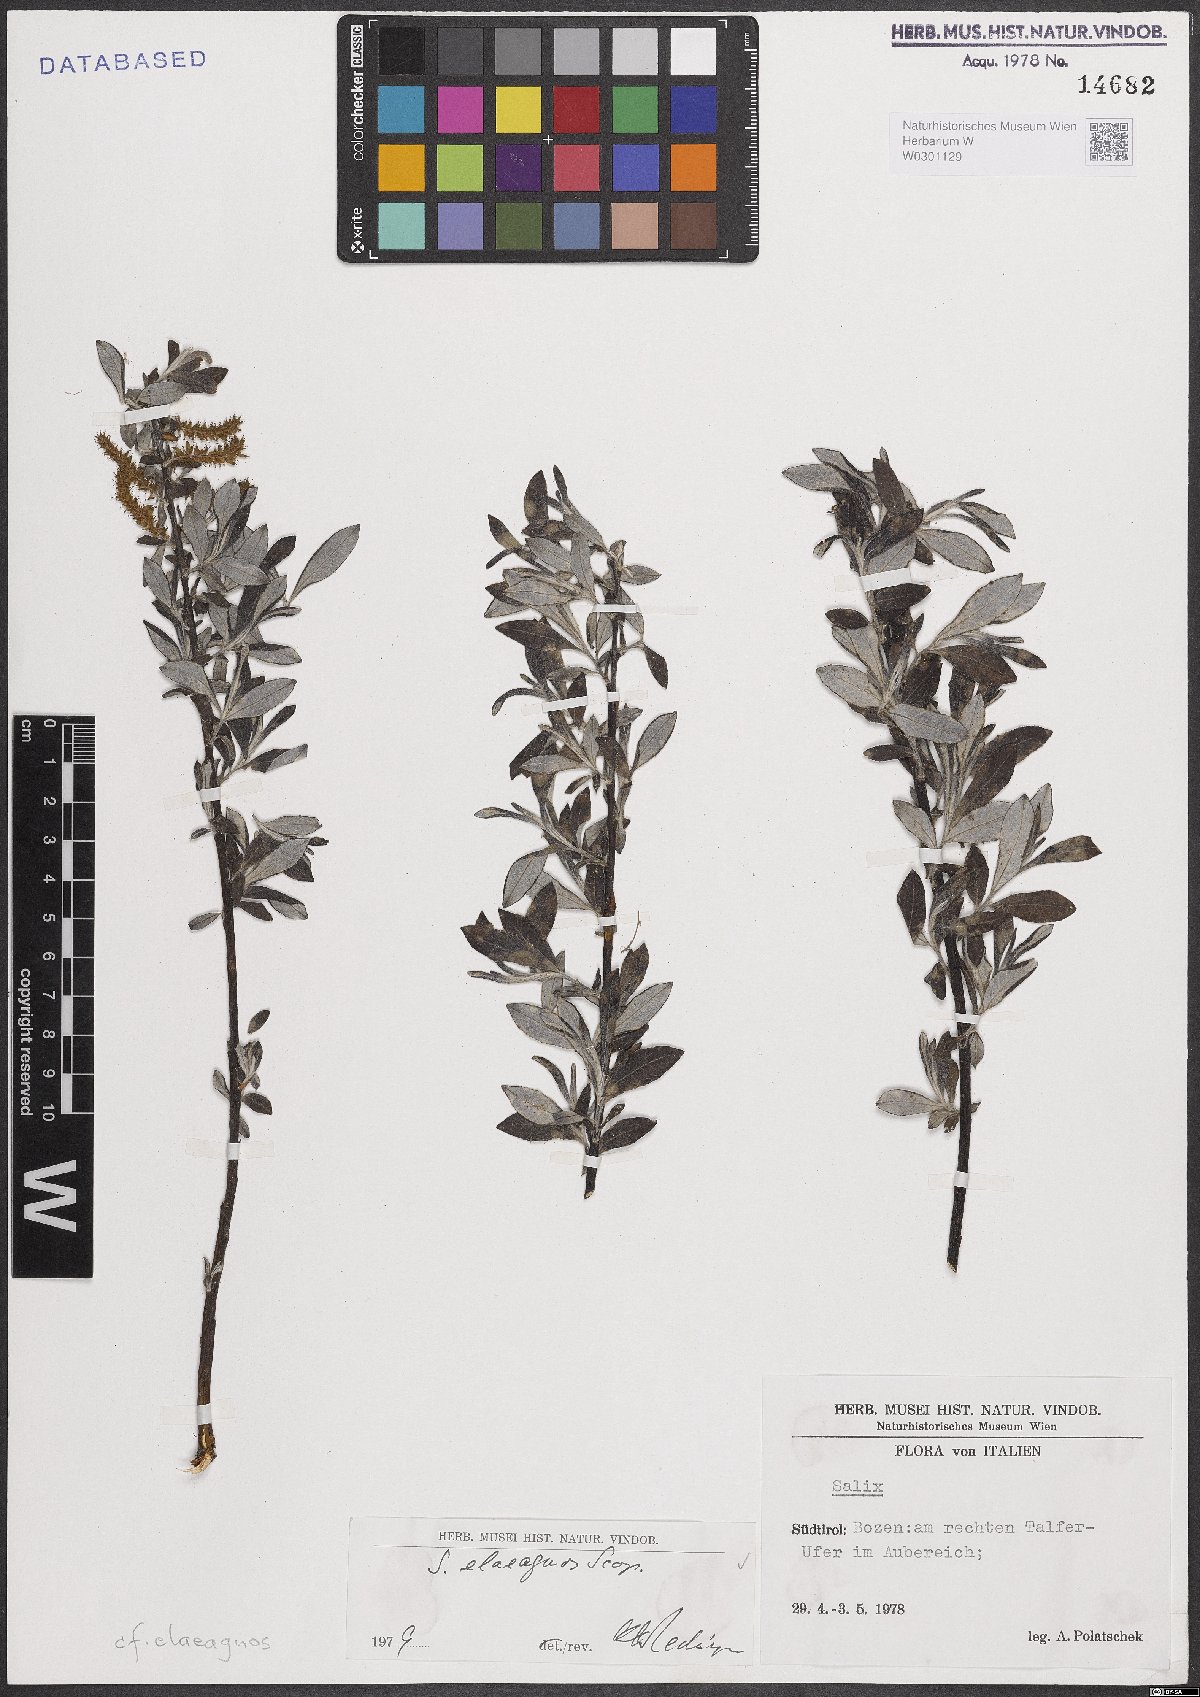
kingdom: Plantae
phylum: Tracheophyta
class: Magnoliopsida
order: Malpighiales
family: Salicaceae
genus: Salix
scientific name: Salix eleagnos
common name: Elaeagnus willow
